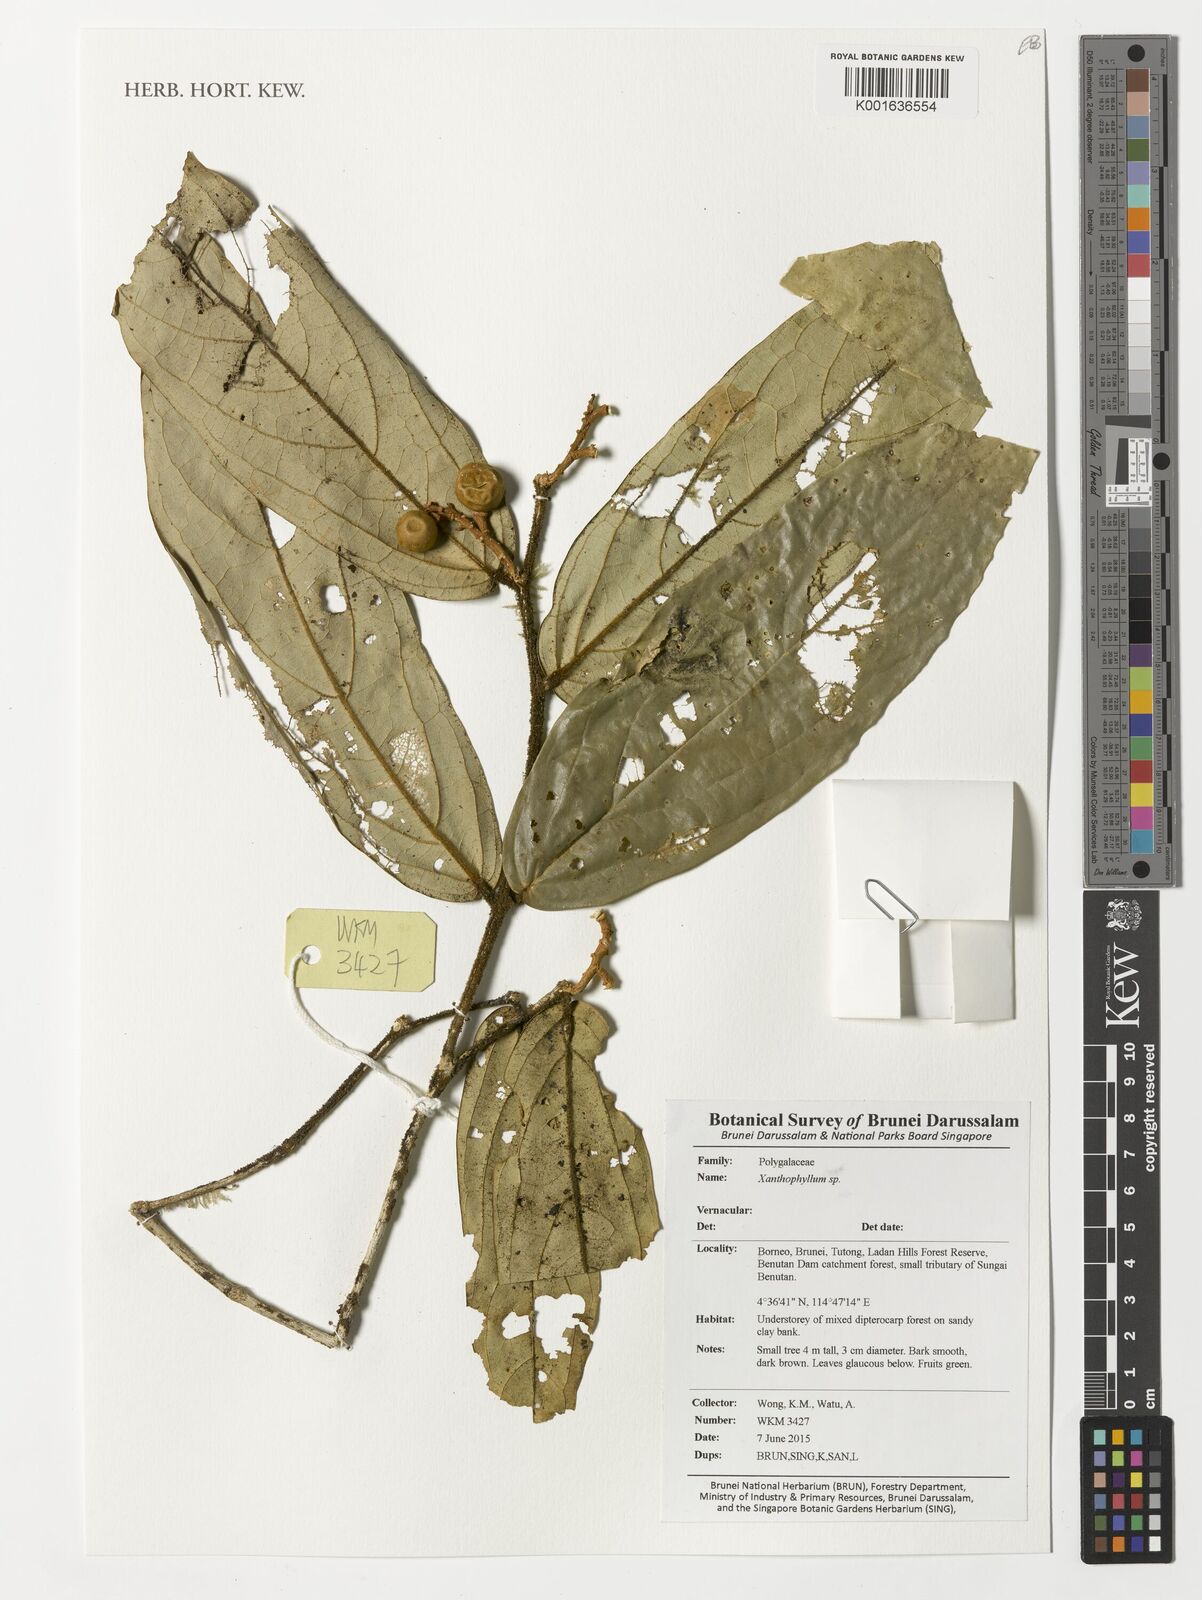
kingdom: Plantae
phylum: Tracheophyta
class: Magnoliopsida
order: Fabales
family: Polygalaceae
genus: Xanthophyllum
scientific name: Xanthophyllum
